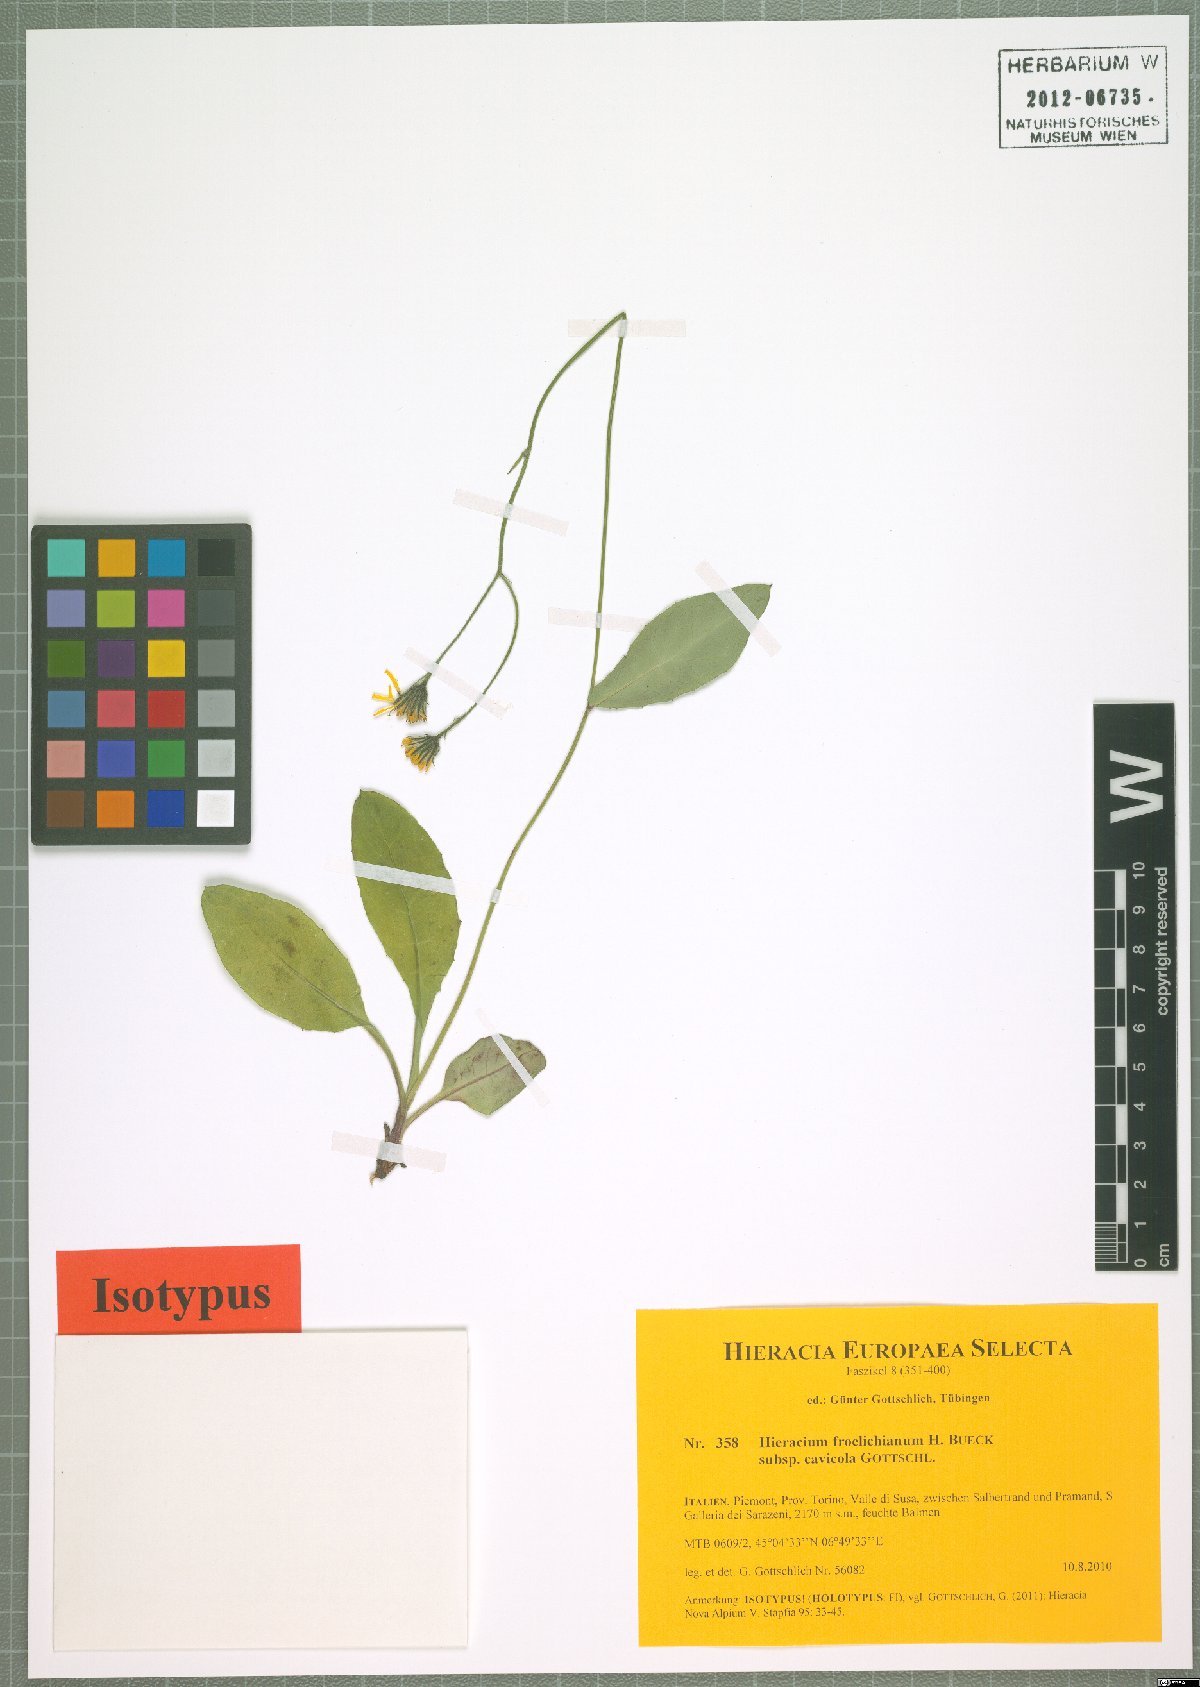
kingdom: Plantae
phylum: Tracheophyta
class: Magnoliopsida
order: Asterales
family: Asteraceae
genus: Hieracium
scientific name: Hieracium froelichianum
